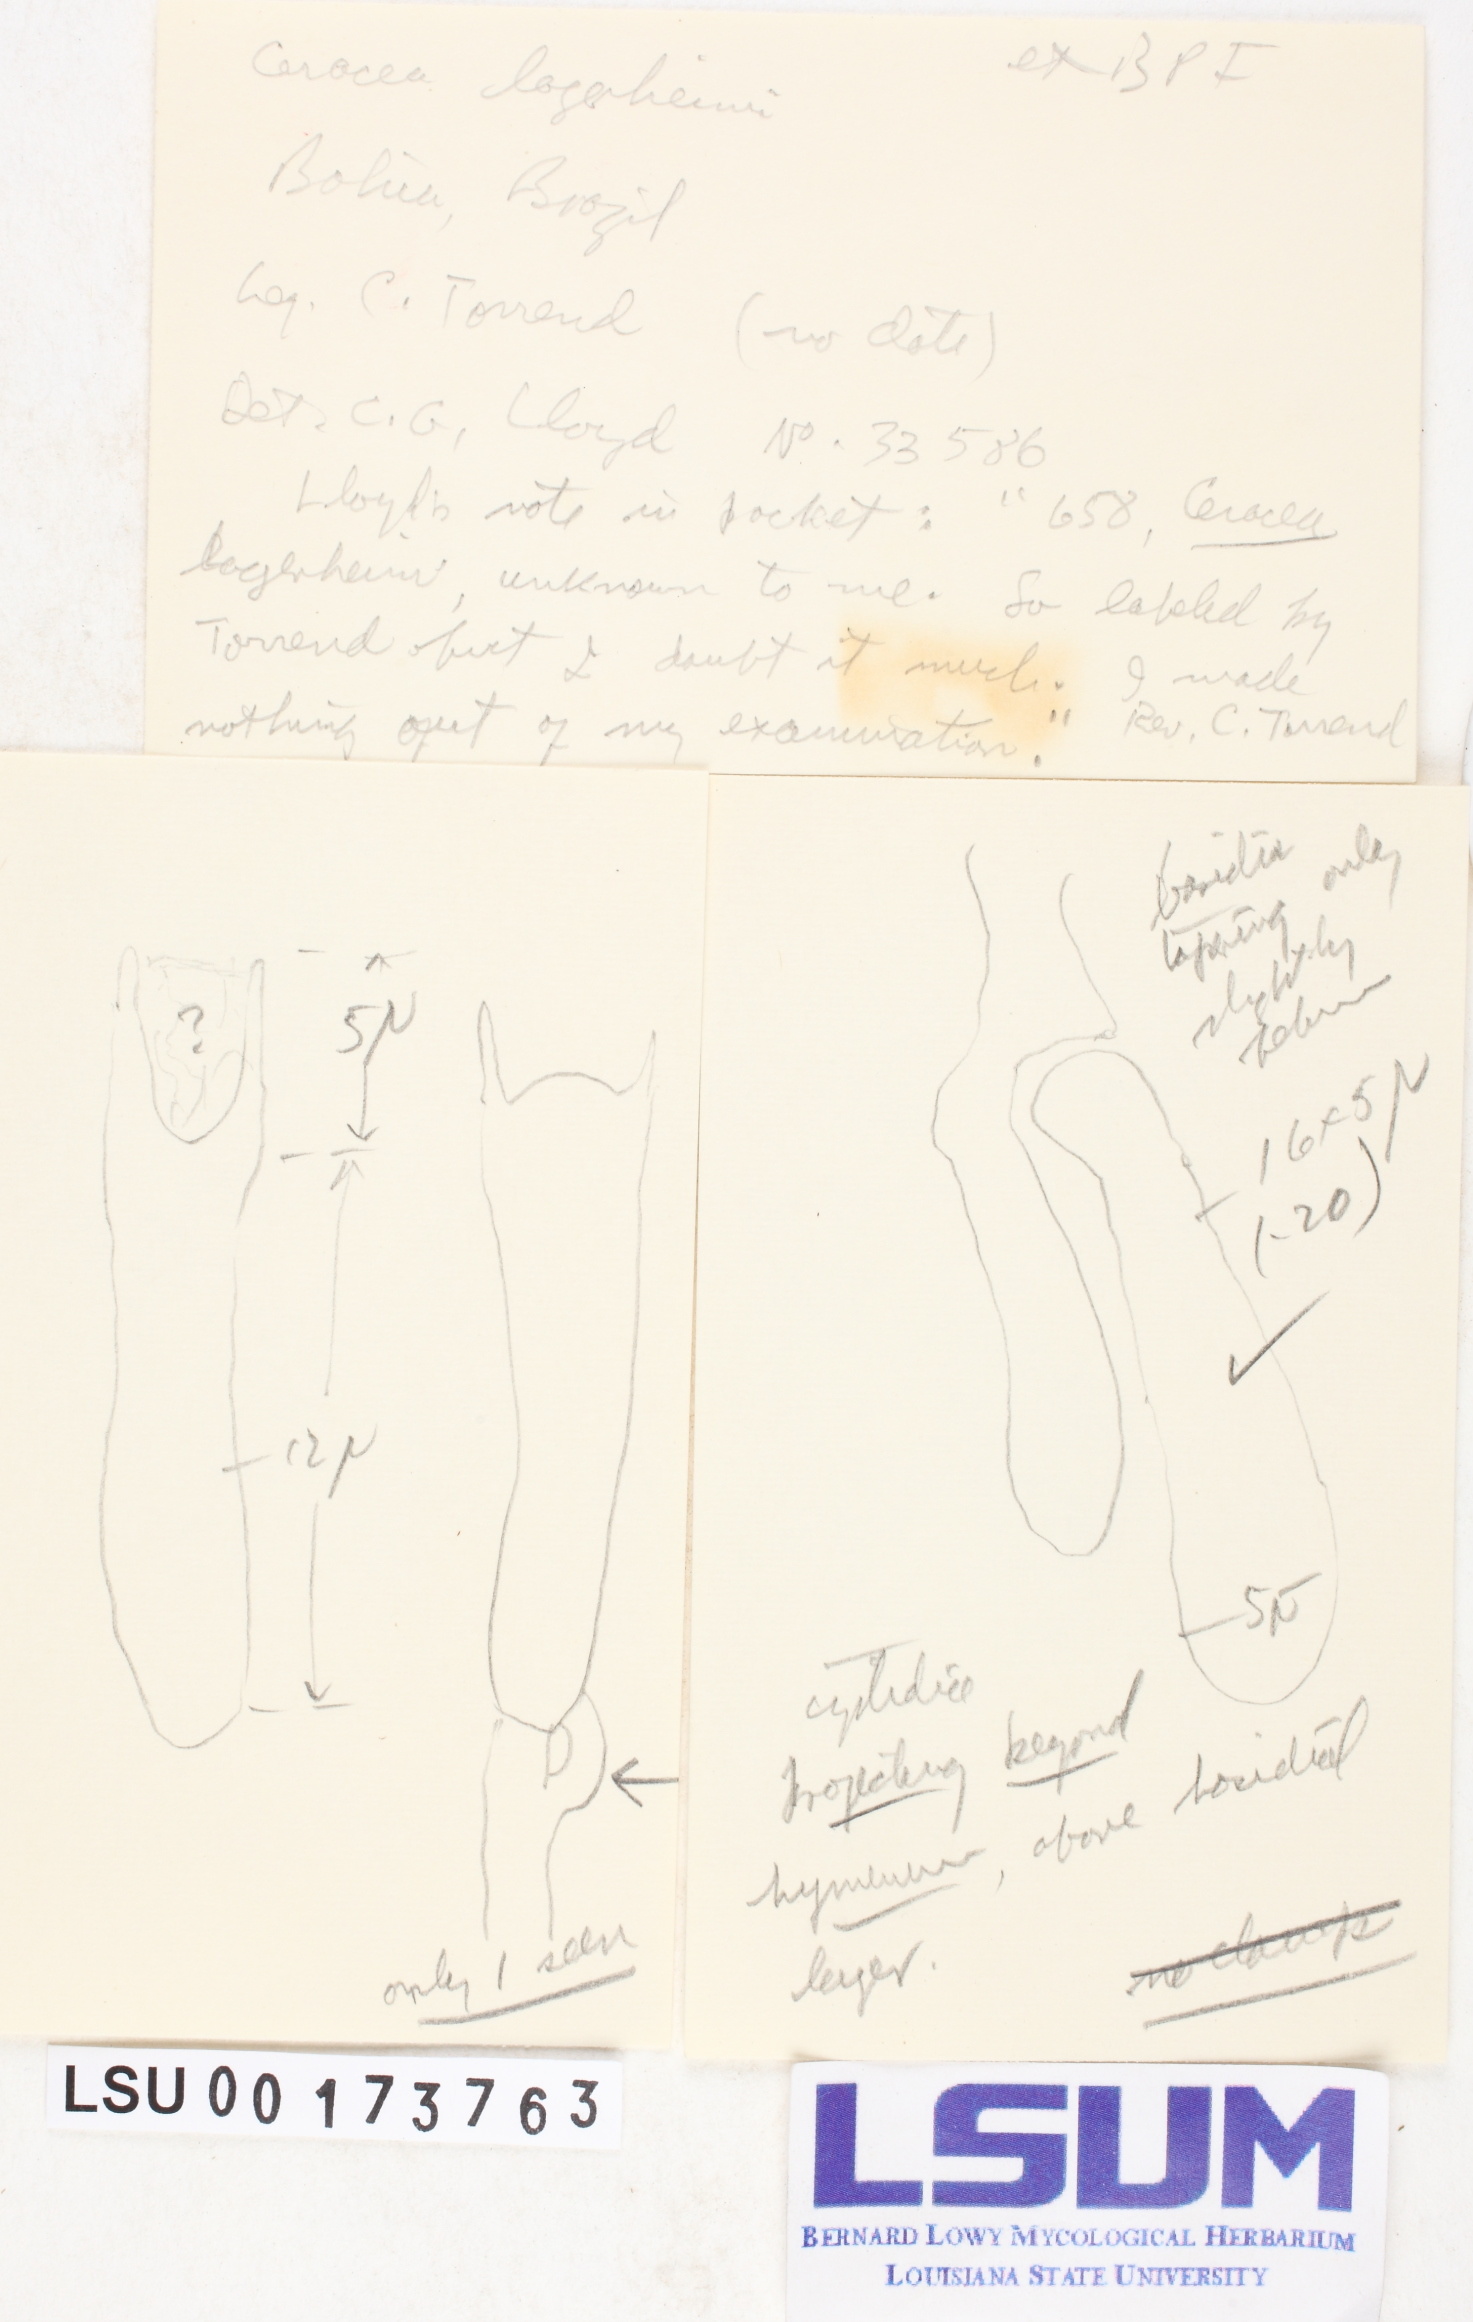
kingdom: Fungi
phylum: Basidiomycota
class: Dacrymycetes
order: Dacrymycetales
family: Dacrymycetaceae
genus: Dacrymyces
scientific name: Dacrymyces lagerheimii
